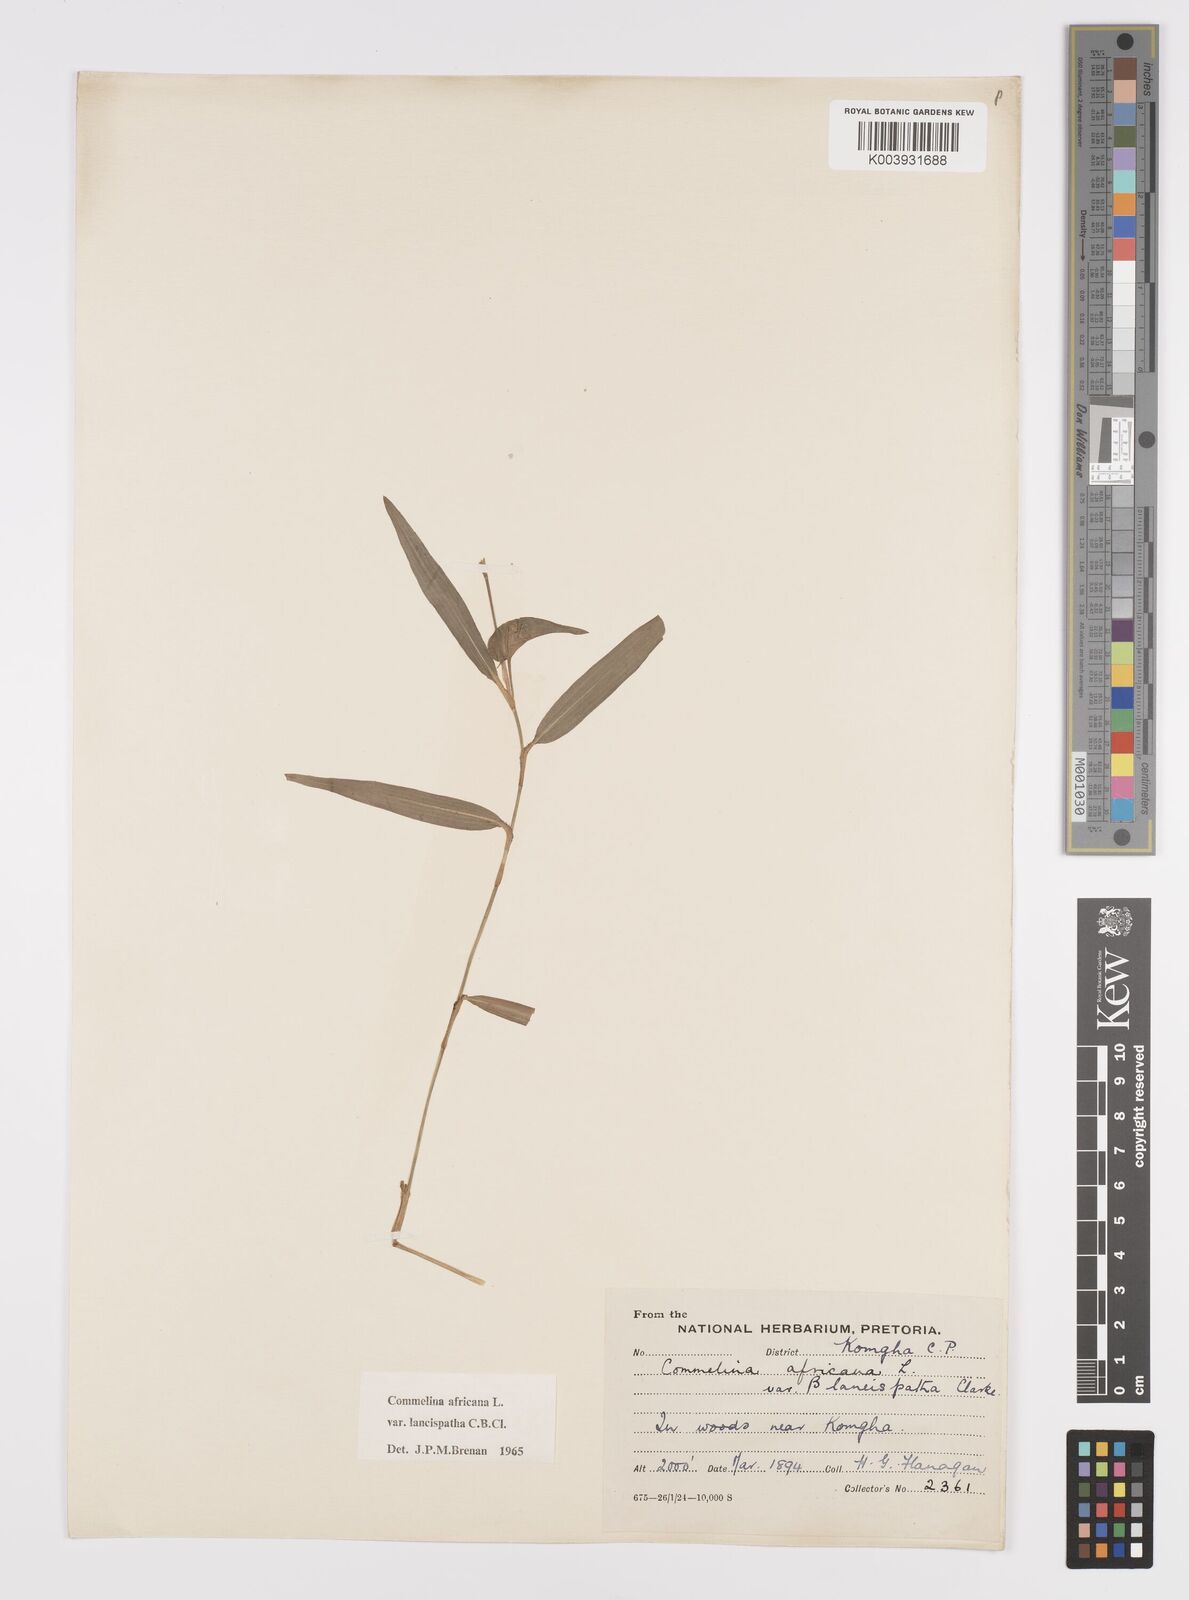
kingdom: Plantae
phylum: Tracheophyta
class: Liliopsida
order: Commelinales
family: Commelinaceae
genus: Commelina
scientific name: Commelina africana
